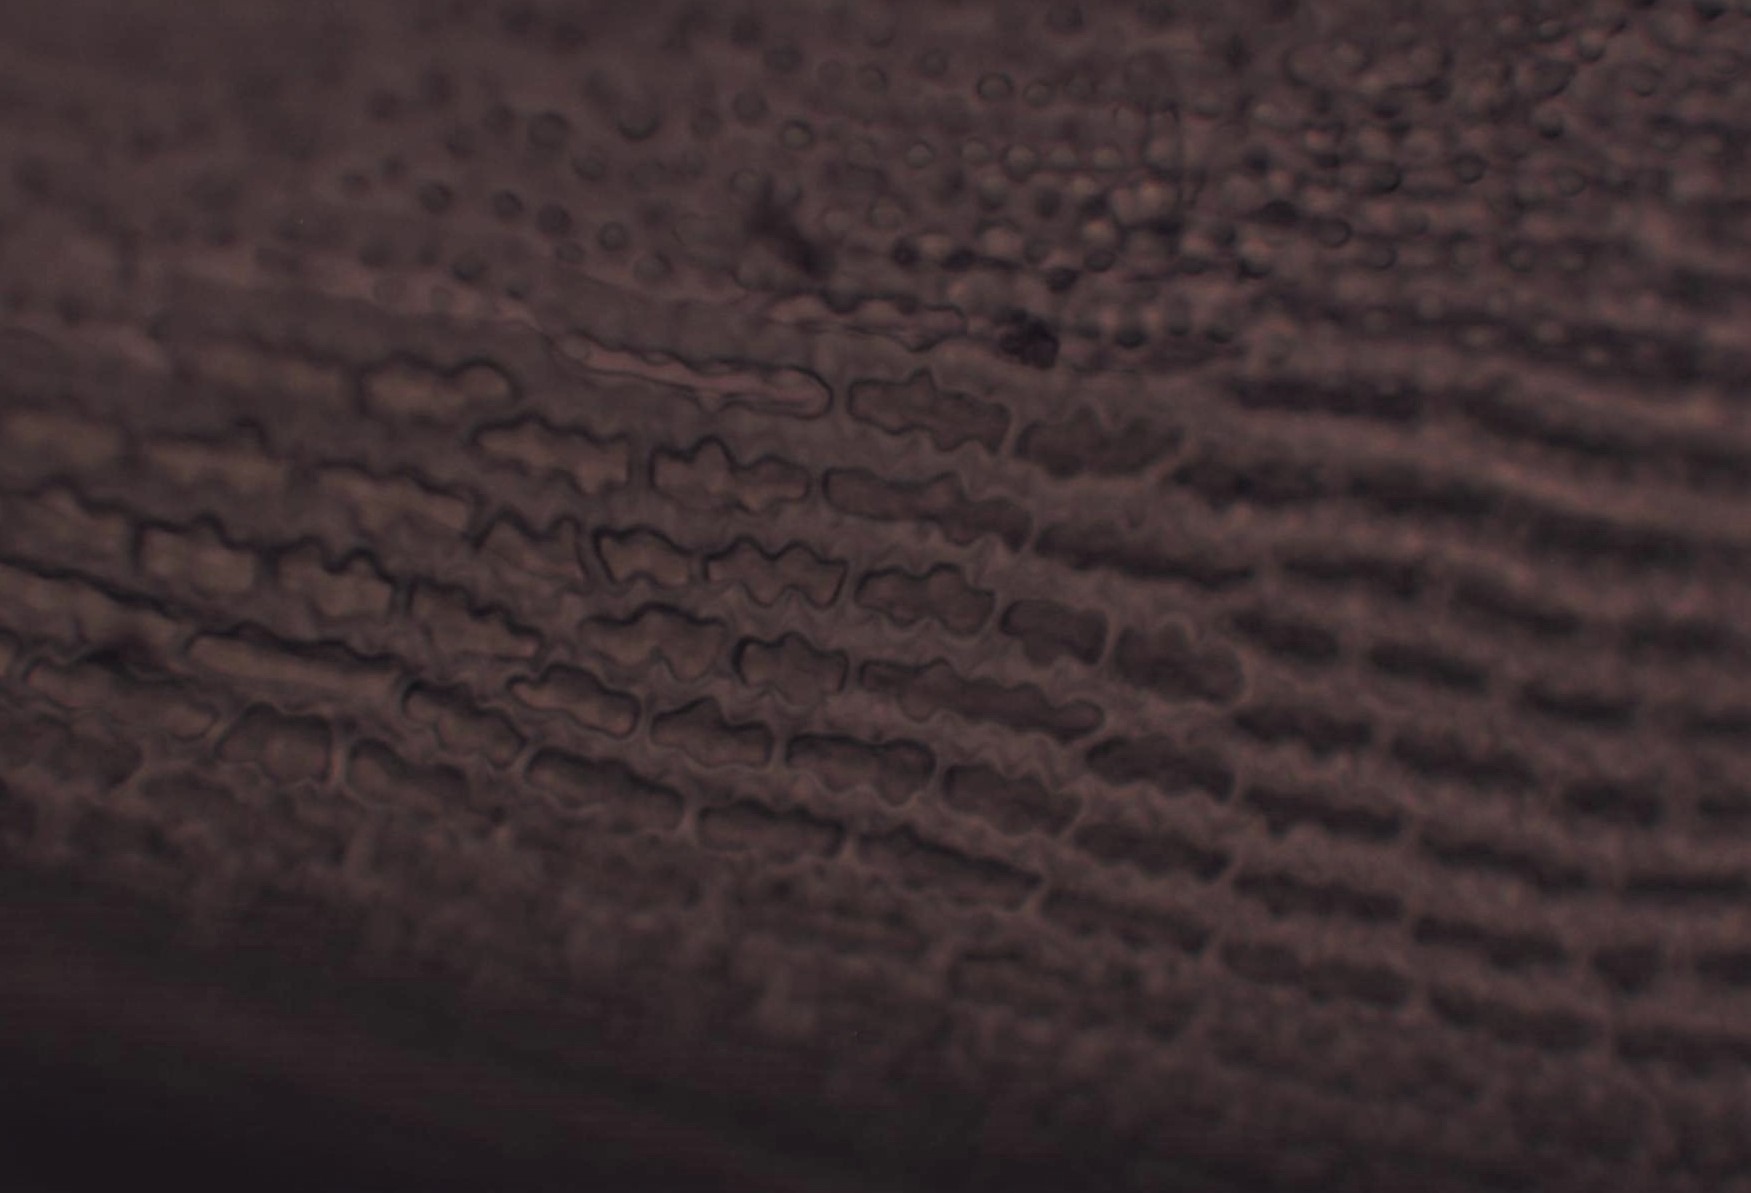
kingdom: Plantae
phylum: Bryophyta
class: Bryopsida
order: Grimmiales
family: Grimmiaceae
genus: Racomitrium
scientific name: Racomitrium lanuginosum
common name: Stor børstemos
